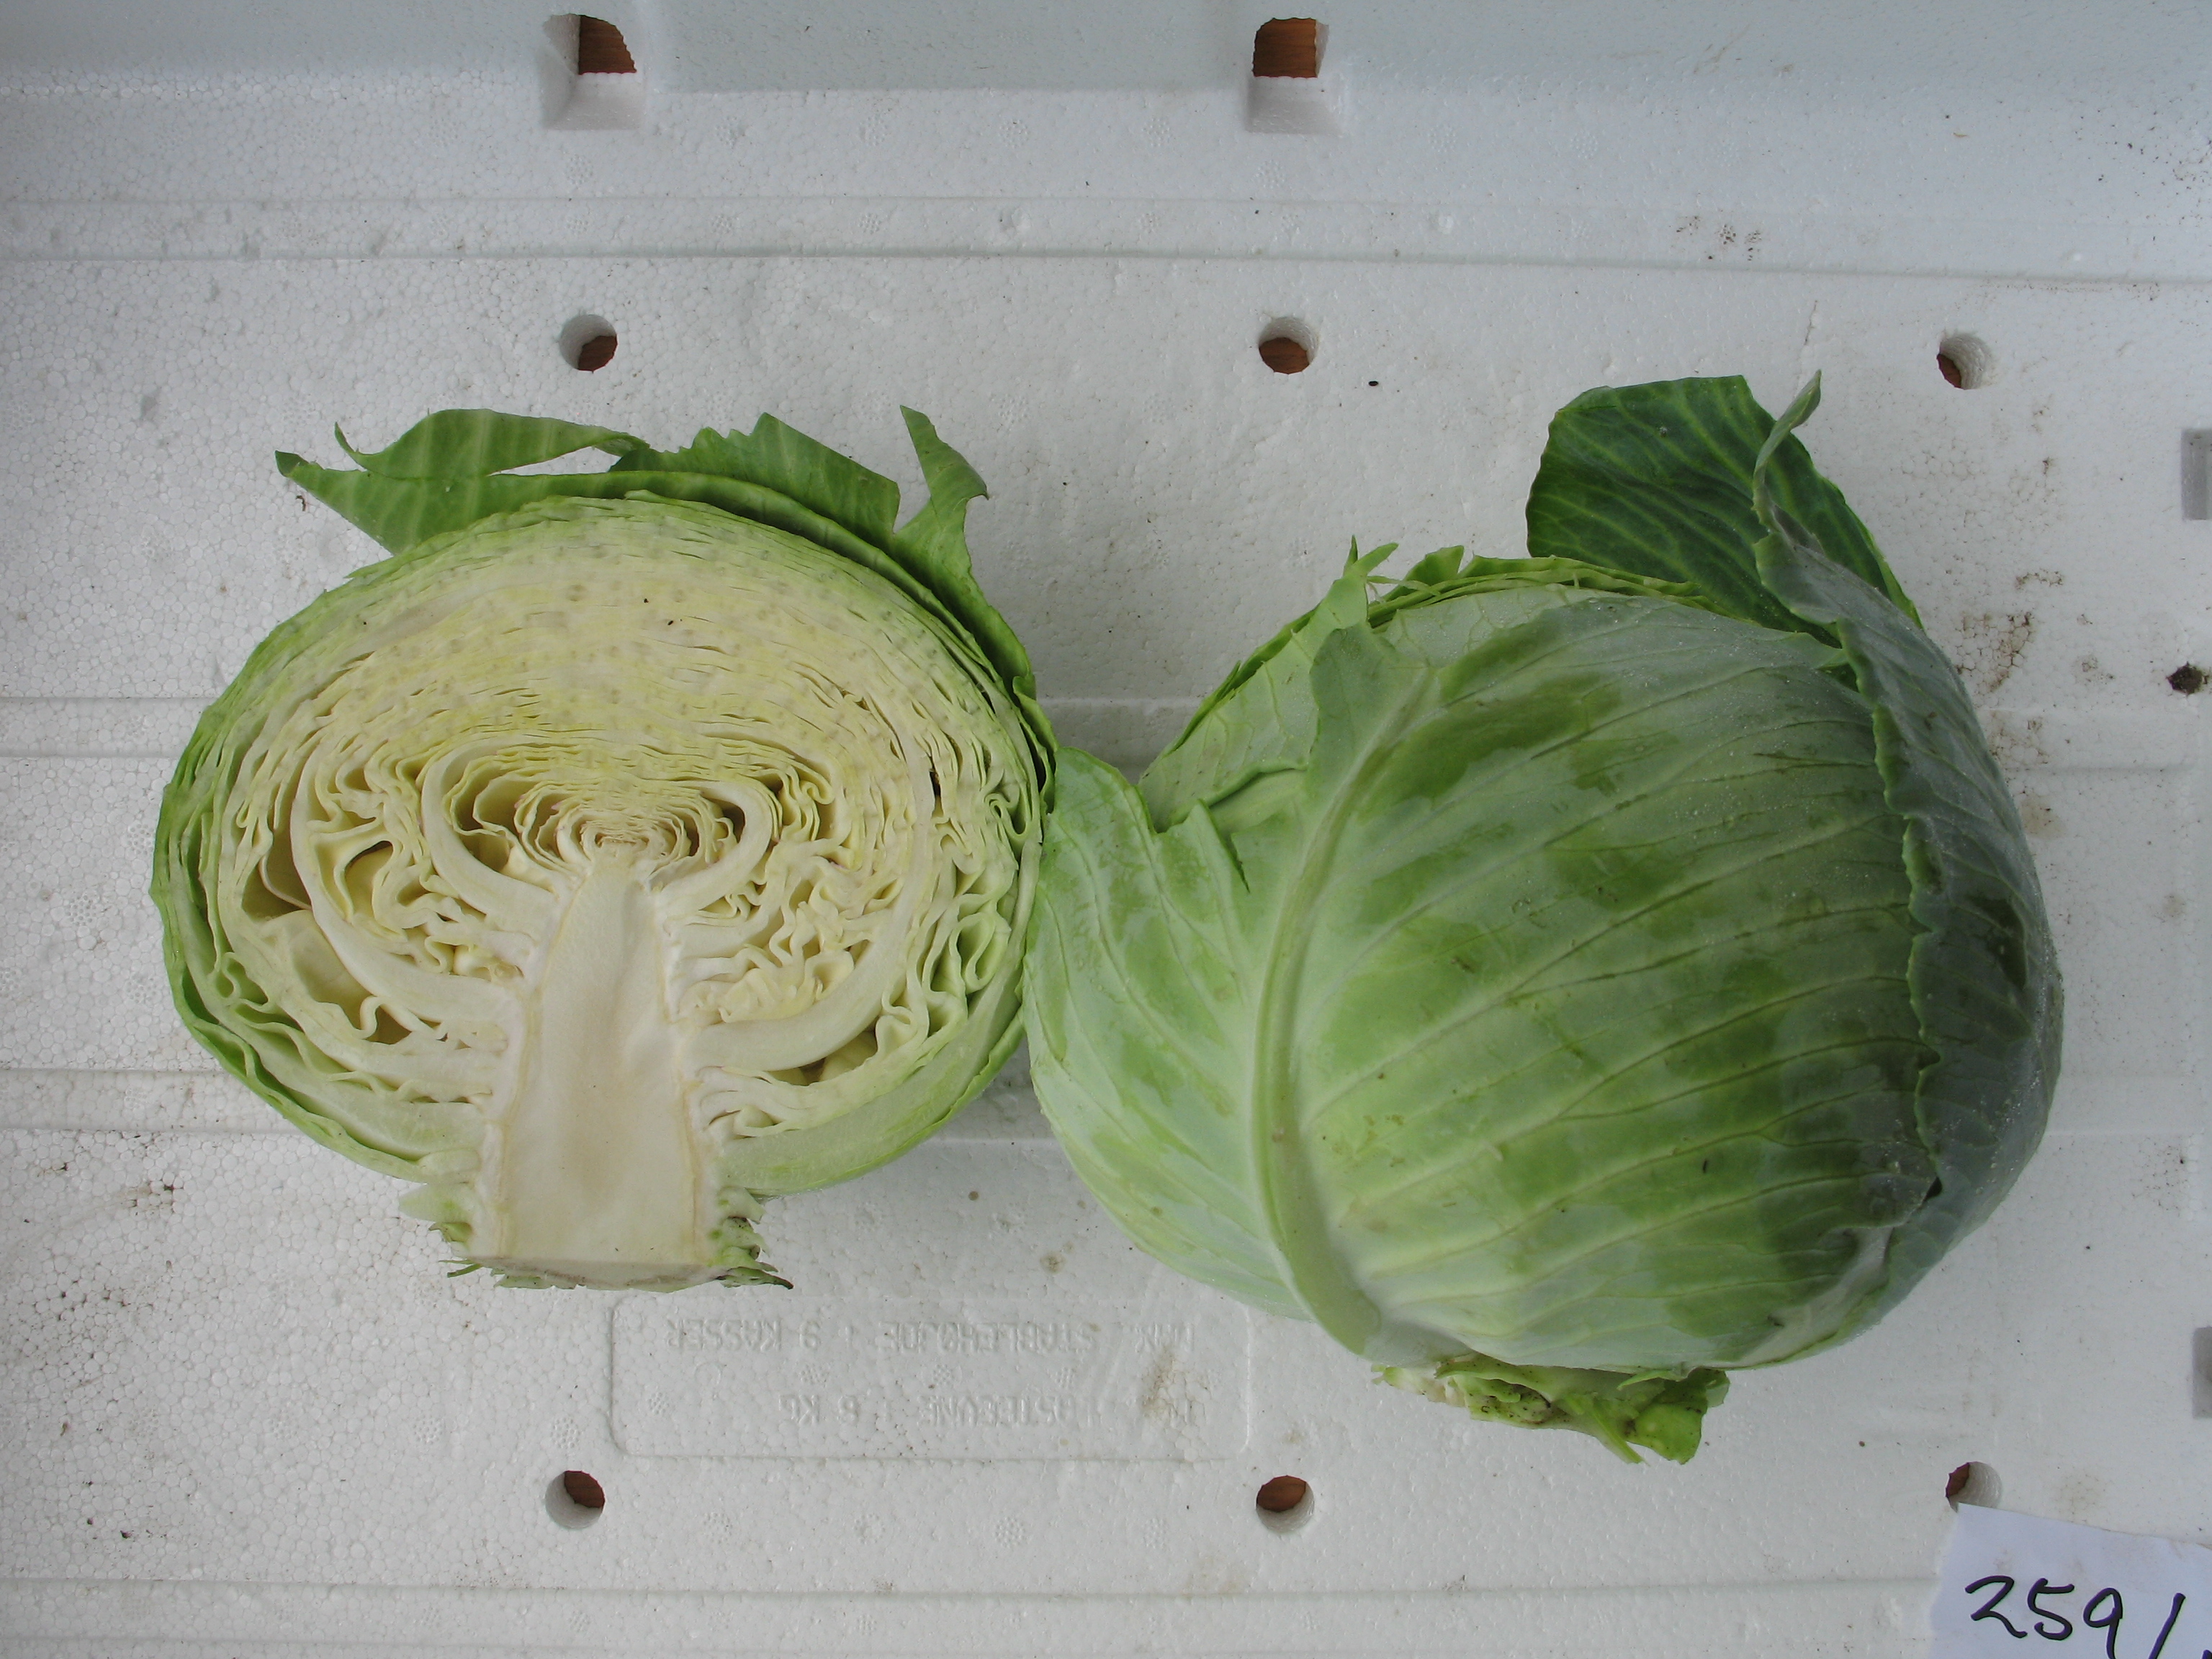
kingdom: Plantae
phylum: Tracheophyta
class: Magnoliopsida
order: Brassicales
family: Brassicaceae
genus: Brassica
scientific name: Brassica oleracea
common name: Cabbage
